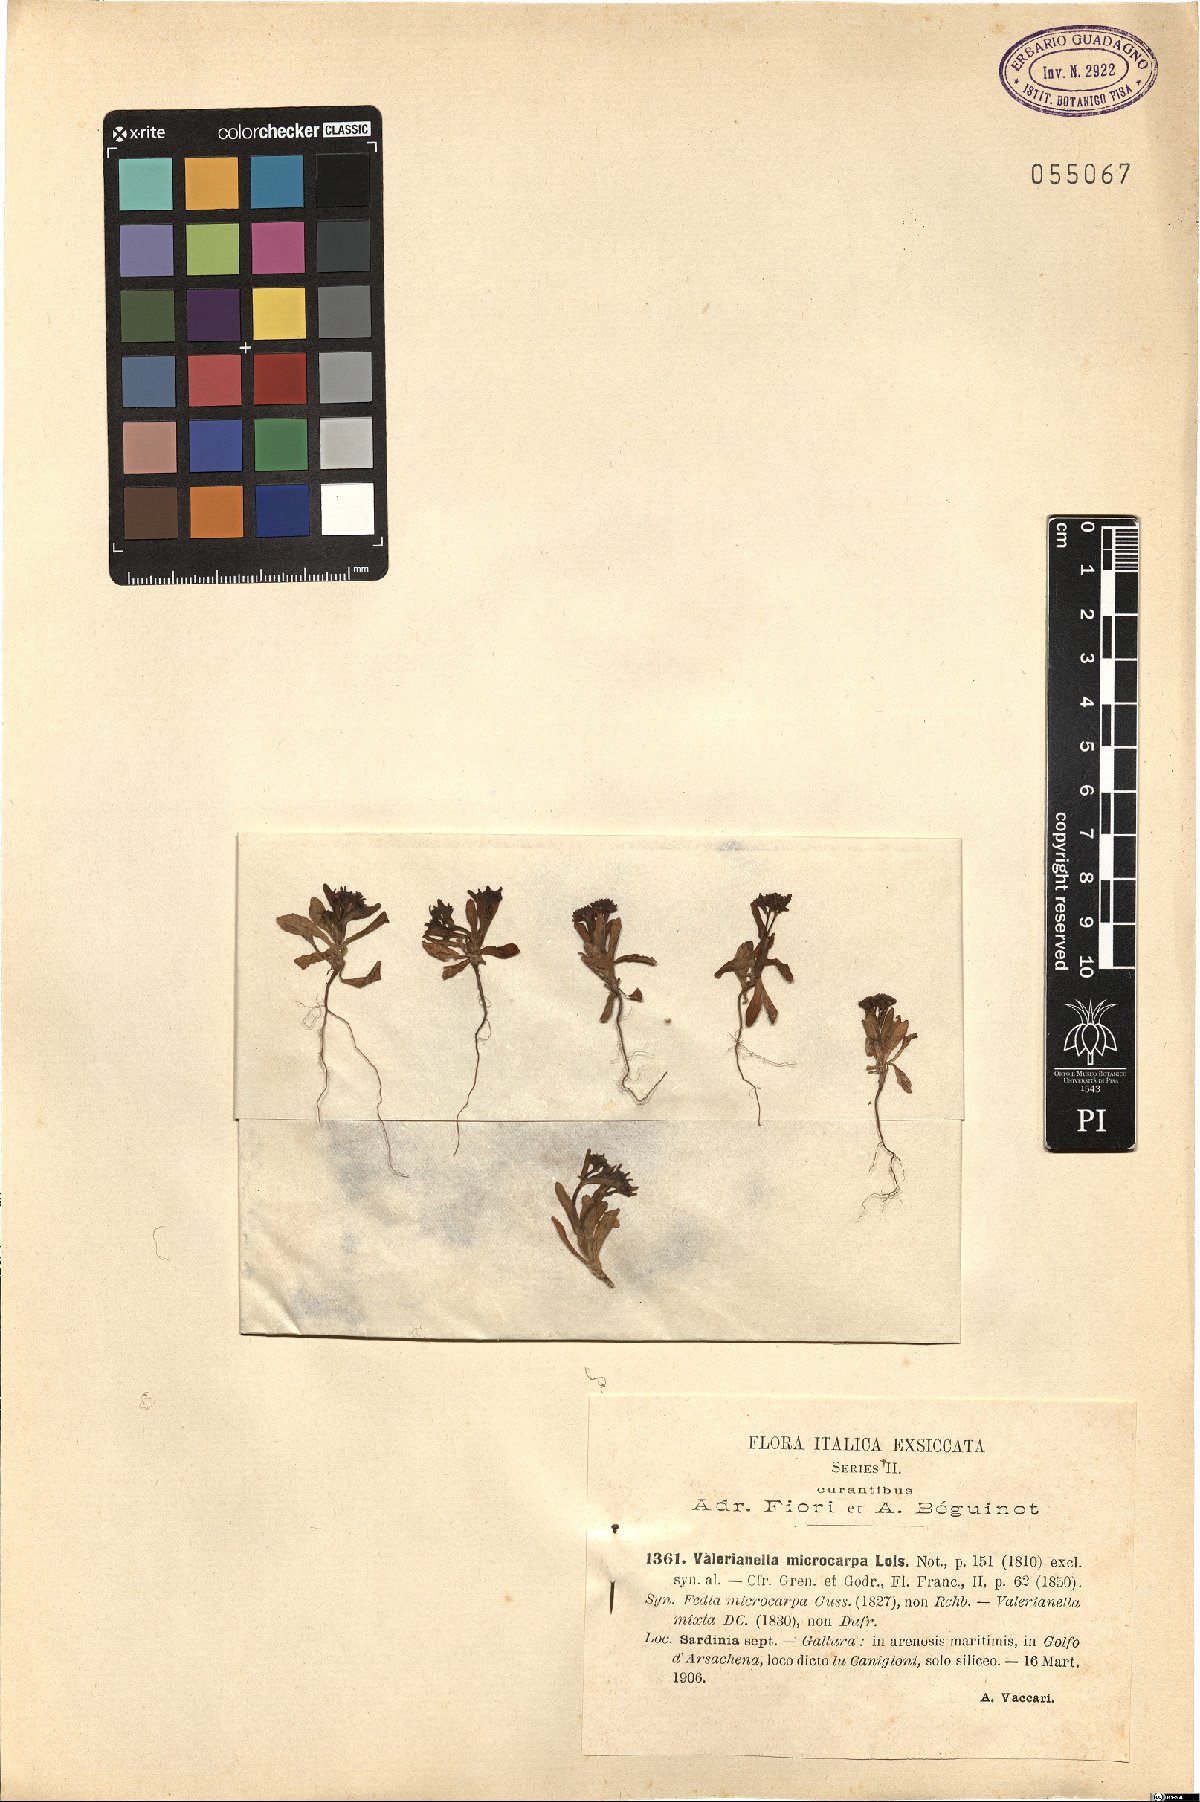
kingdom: Plantae
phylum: Tracheophyta
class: Magnoliopsida
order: Dipsacales
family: Caprifoliaceae
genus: Valerianella
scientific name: Valerianella microcarpa
